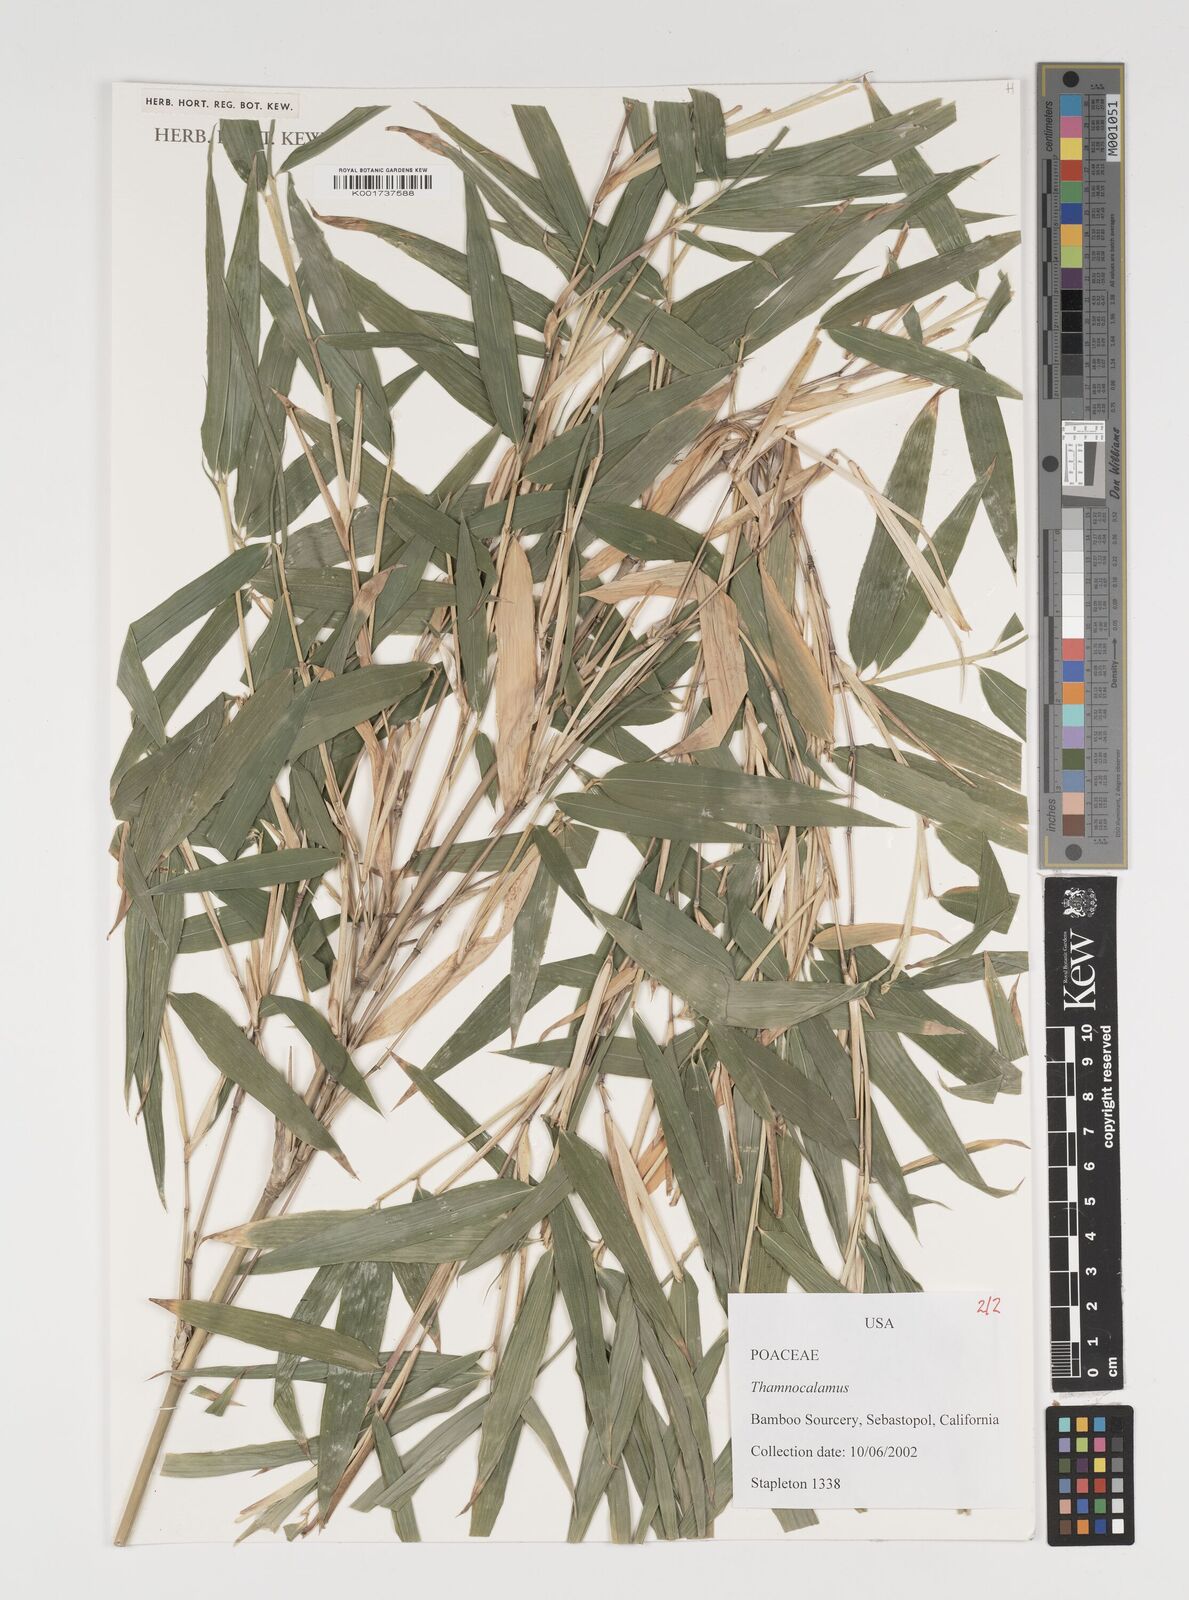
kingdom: Plantae
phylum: Tracheophyta
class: Liliopsida
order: Poales
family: Poaceae
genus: Thamnocalamus
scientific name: Thamnocalamus
